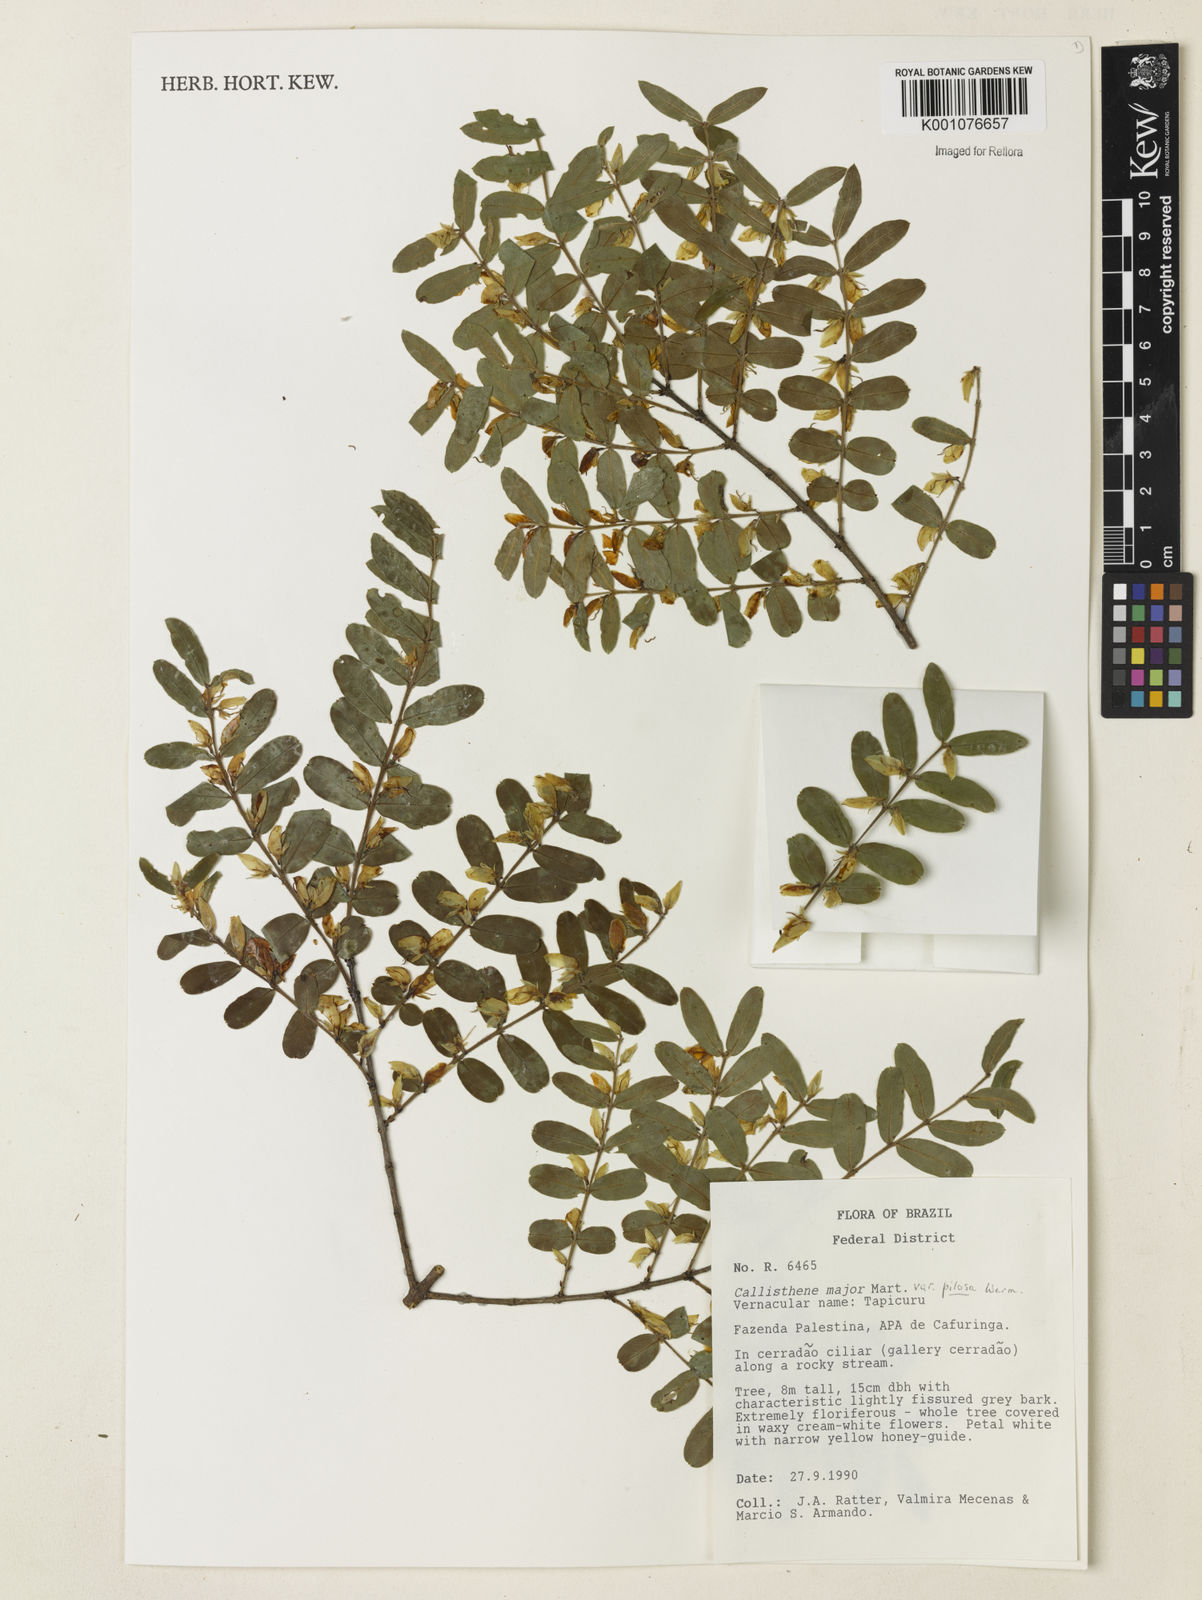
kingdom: Plantae
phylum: Tracheophyta
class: Magnoliopsida
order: Myrtales
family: Vochysiaceae
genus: Callisthene
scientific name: Callisthene major
